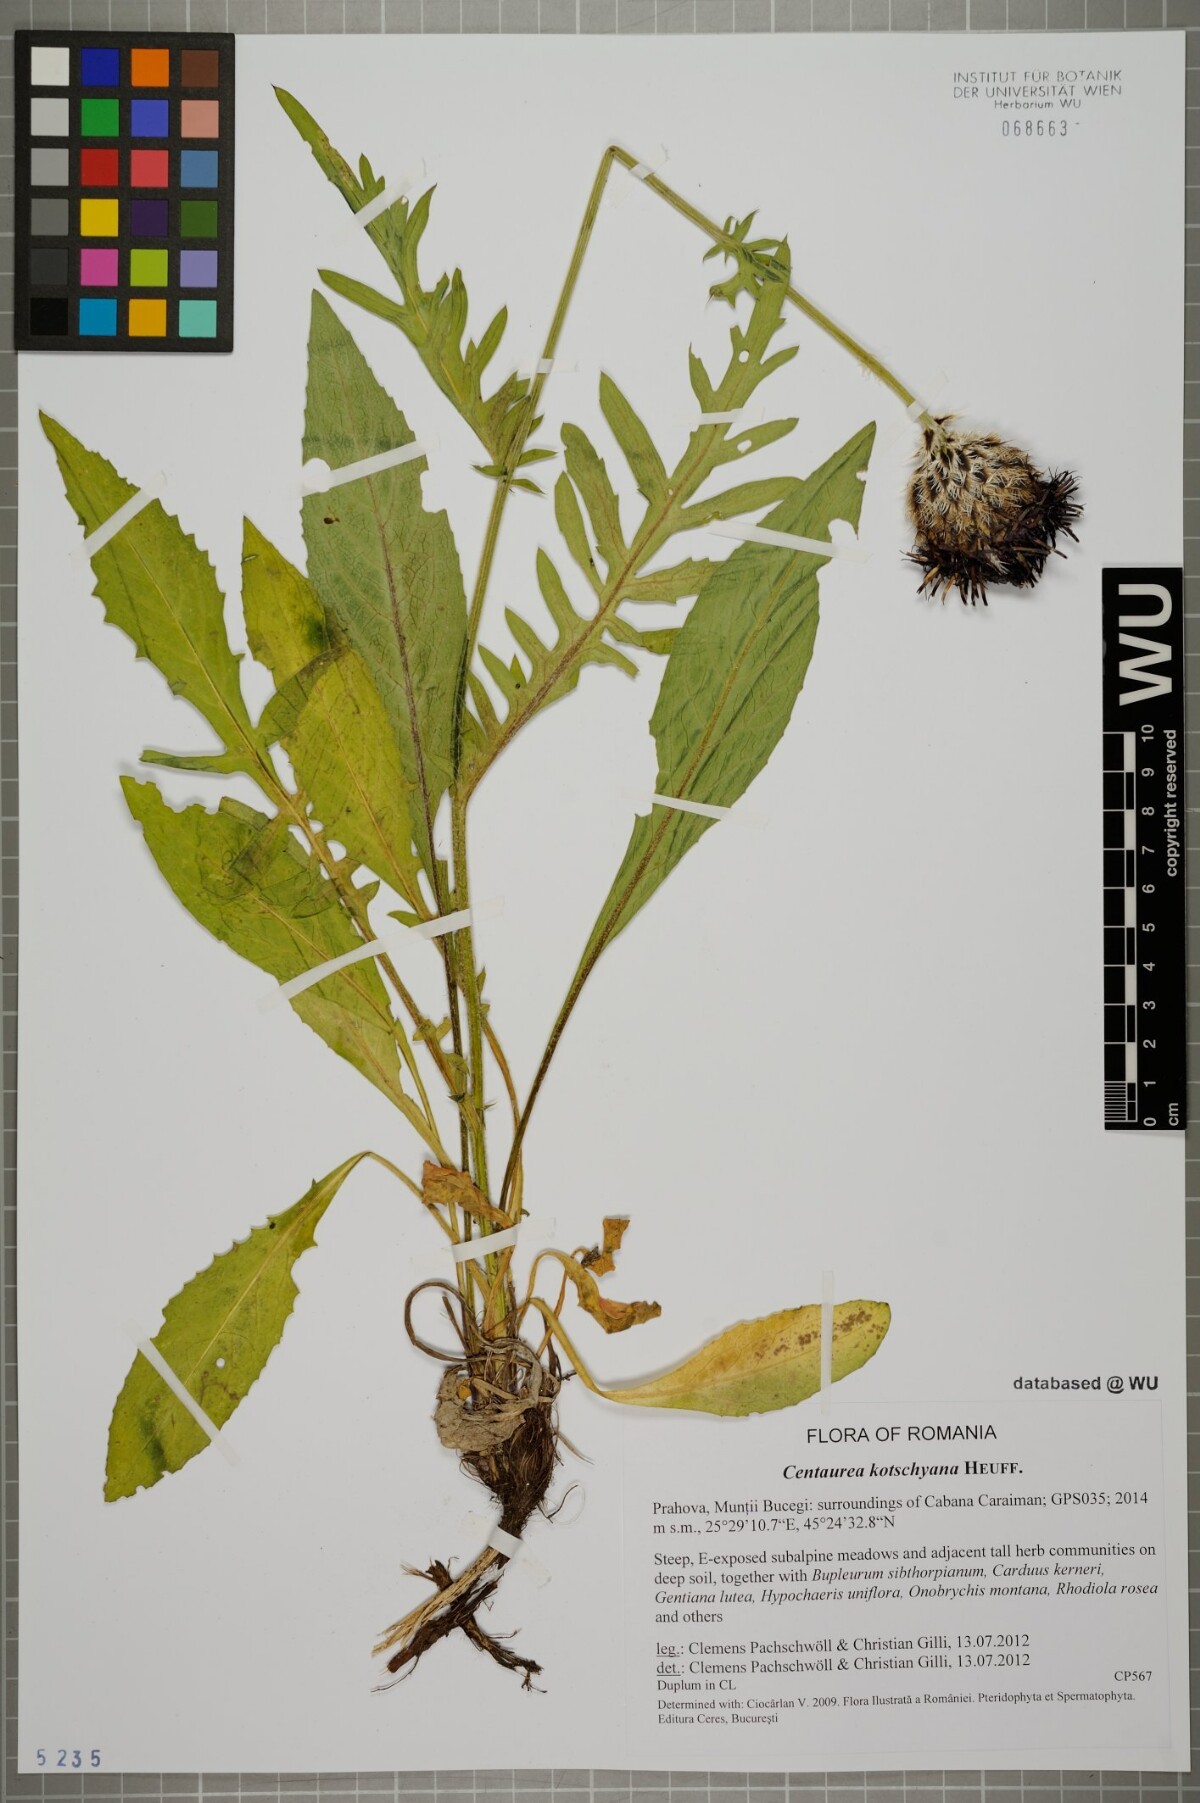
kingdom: Plantae
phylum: Tracheophyta
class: Magnoliopsida
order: Asterales
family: Asteraceae
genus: Centaurea
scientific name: Centaurea kotschyana
